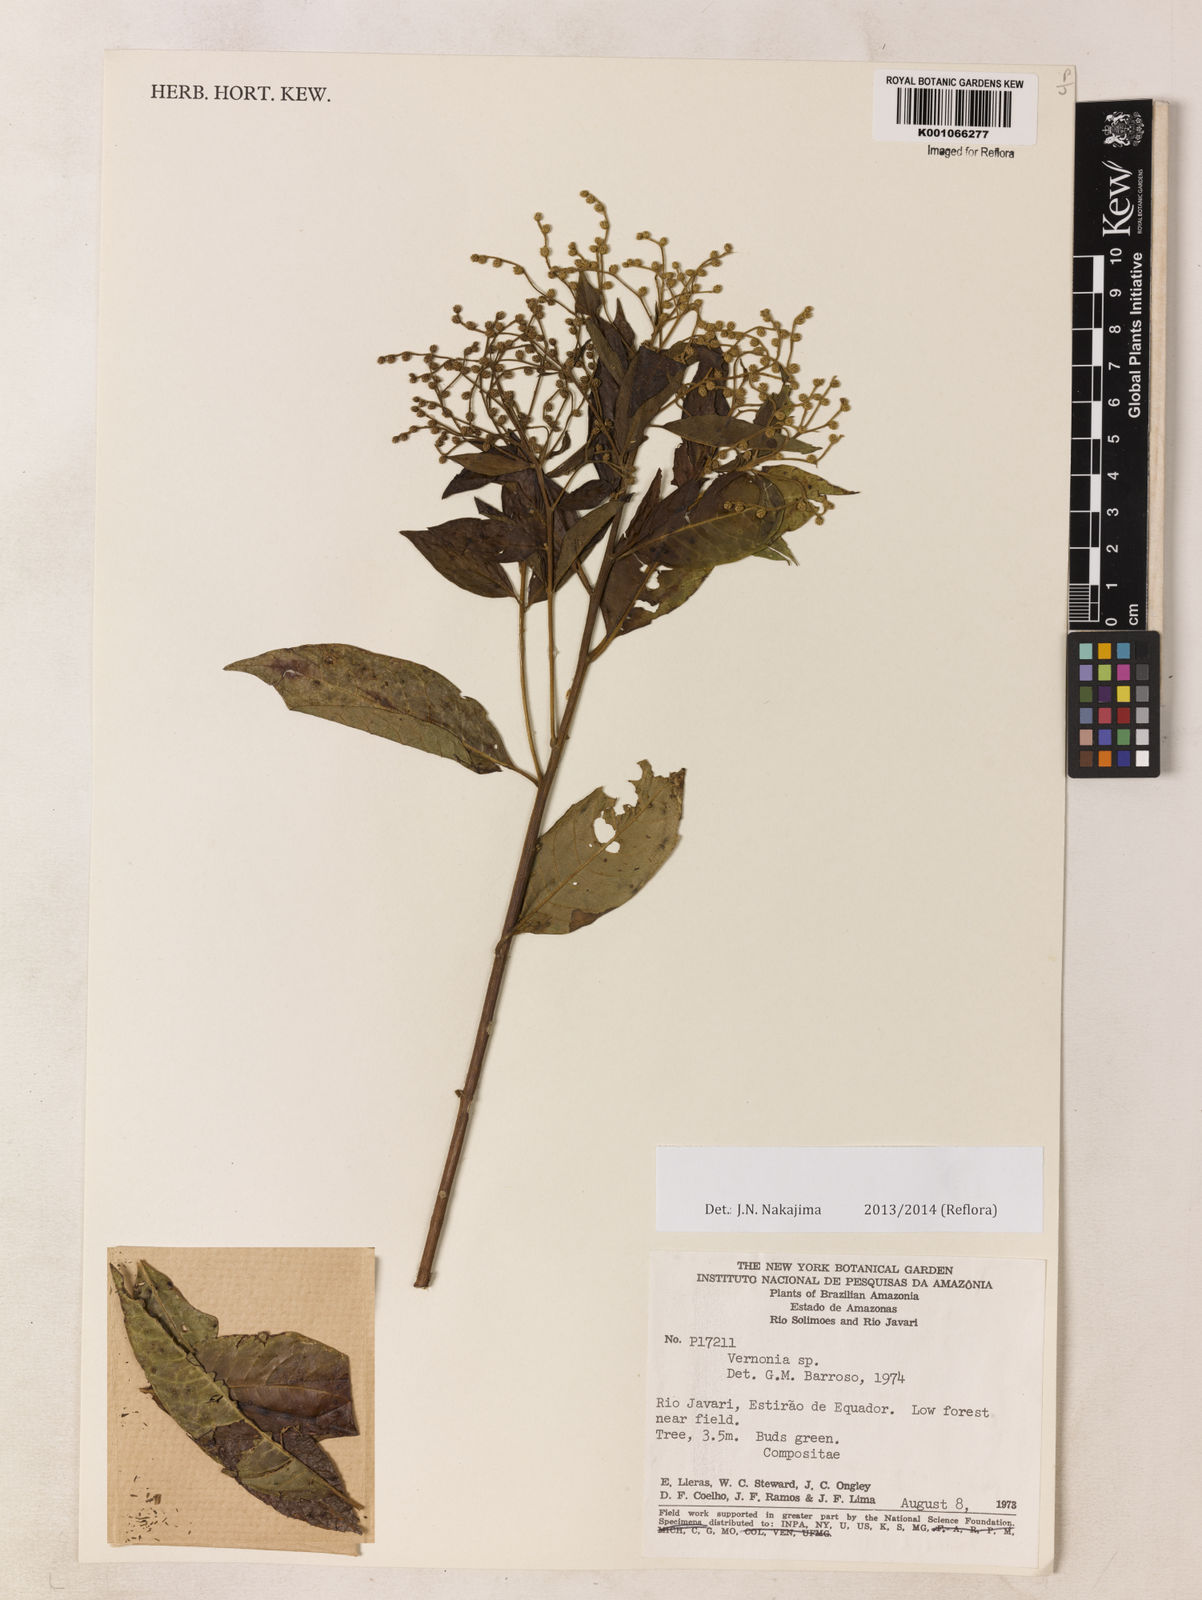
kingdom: Plantae
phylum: Tracheophyta
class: Magnoliopsida
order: Asterales
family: Asteraceae
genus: Vernonia
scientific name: Vernonia
